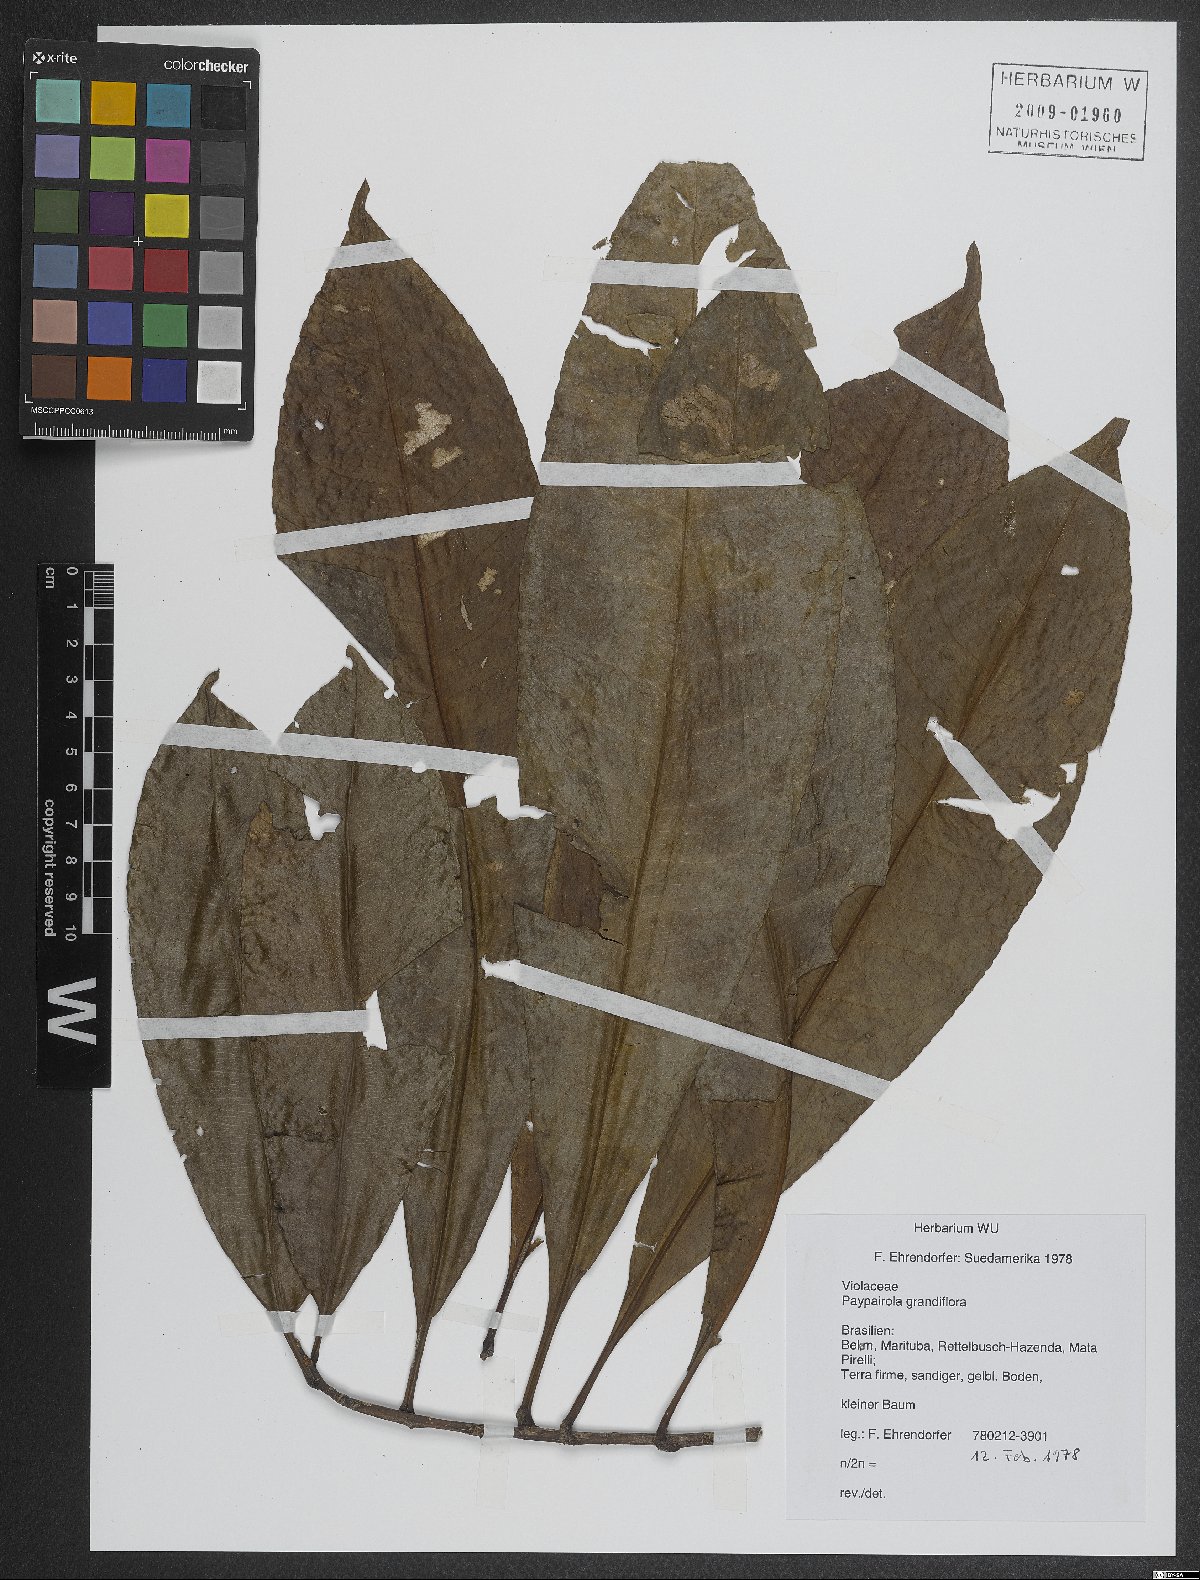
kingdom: Plantae
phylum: Tracheophyta
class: Magnoliopsida
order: Malpighiales
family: Violaceae
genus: Paypayrola
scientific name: Paypayrola grandiflora
